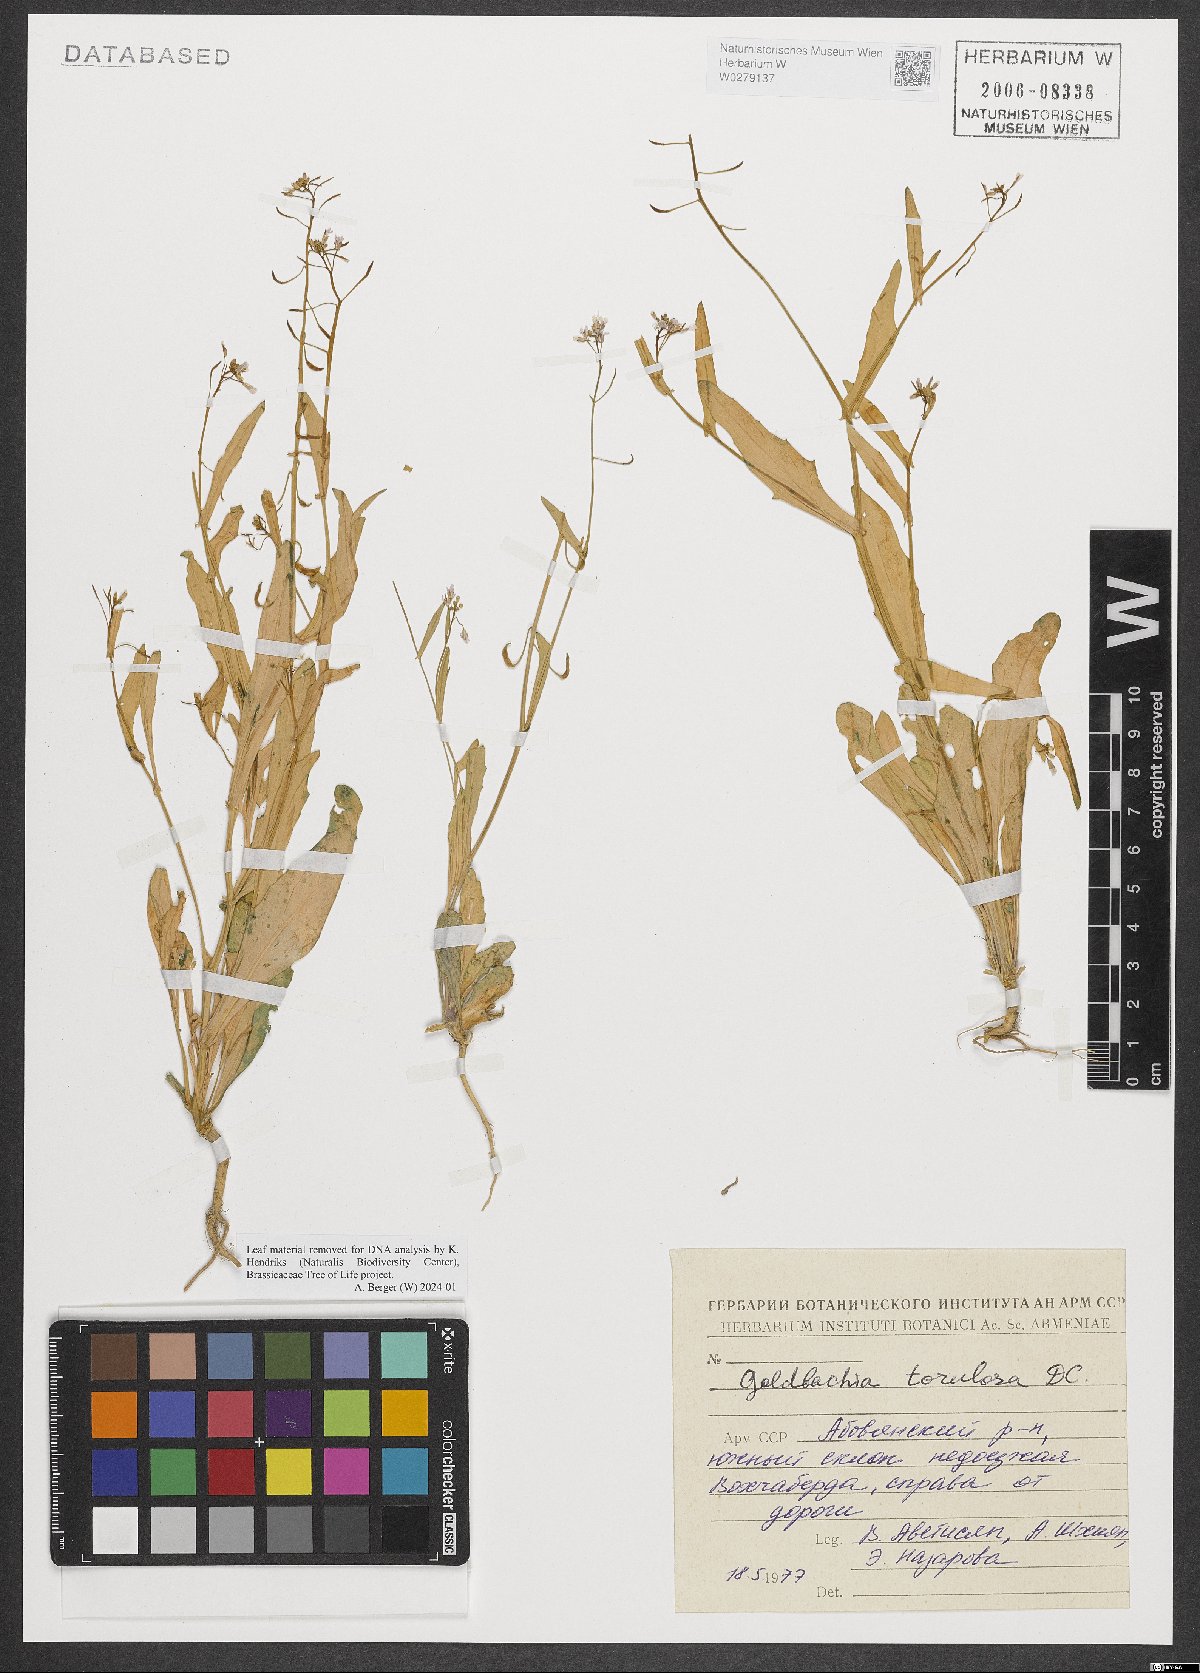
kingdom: Plantae
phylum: Tracheophyta
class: Magnoliopsida
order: Brassicales
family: Brassicaceae
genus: Goldbachia
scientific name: Goldbachia laevigata
